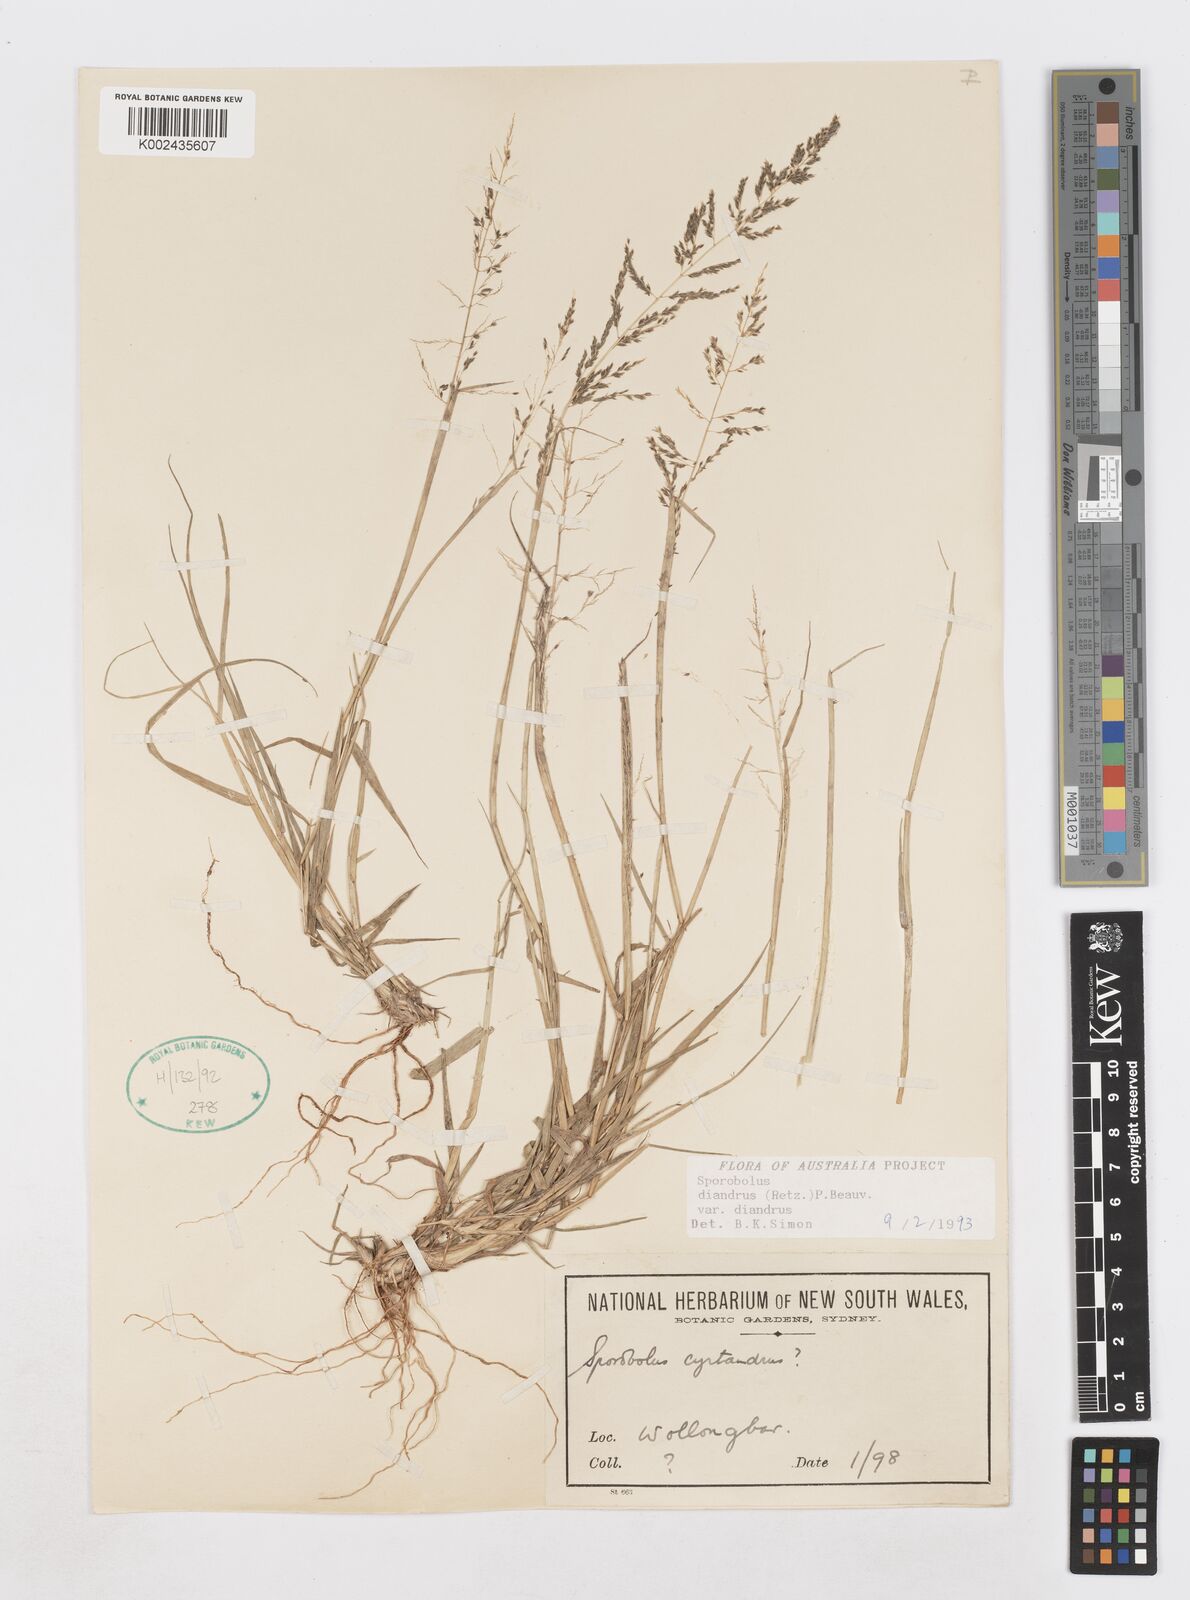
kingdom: Plantae
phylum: Tracheophyta
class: Liliopsida
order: Poales
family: Poaceae
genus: Sporobolus
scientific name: Sporobolus diandrus
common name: Tussock dropseed
